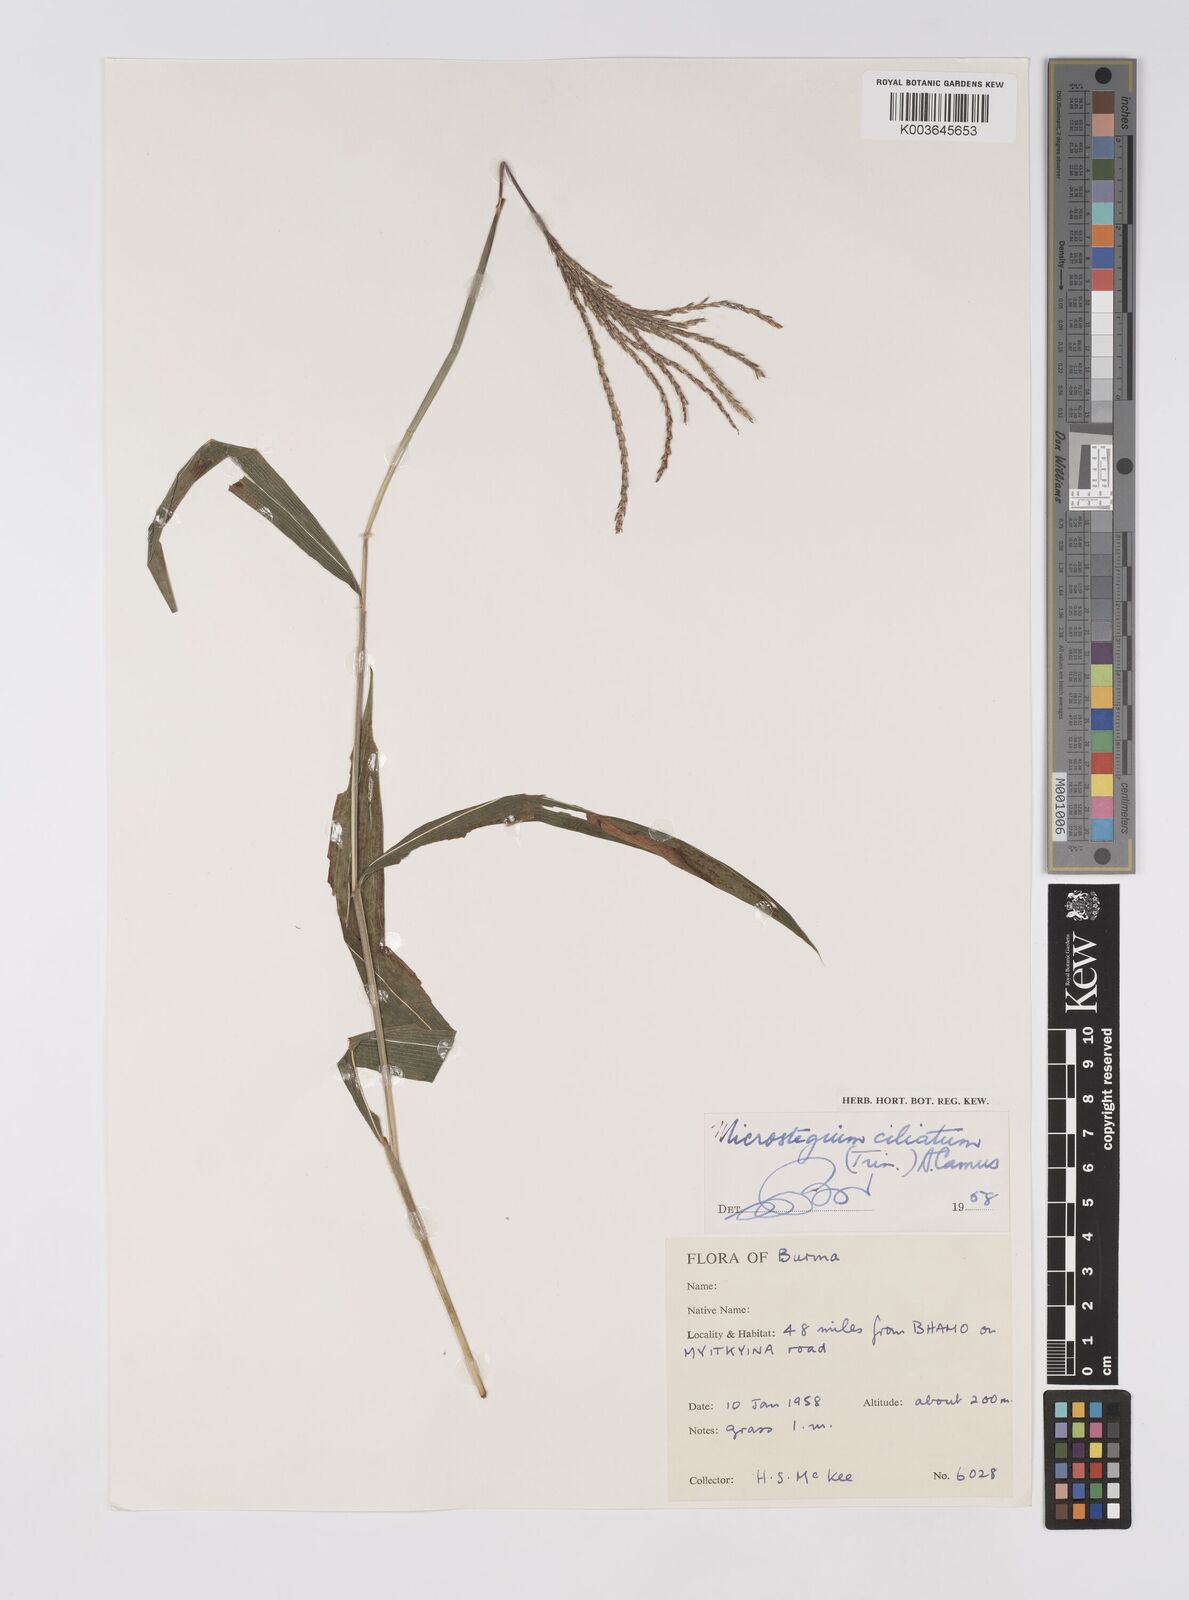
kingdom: Plantae
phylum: Tracheophyta
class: Liliopsida
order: Poales
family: Poaceae
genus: Microstegium
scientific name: Microstegium fasciculatum
